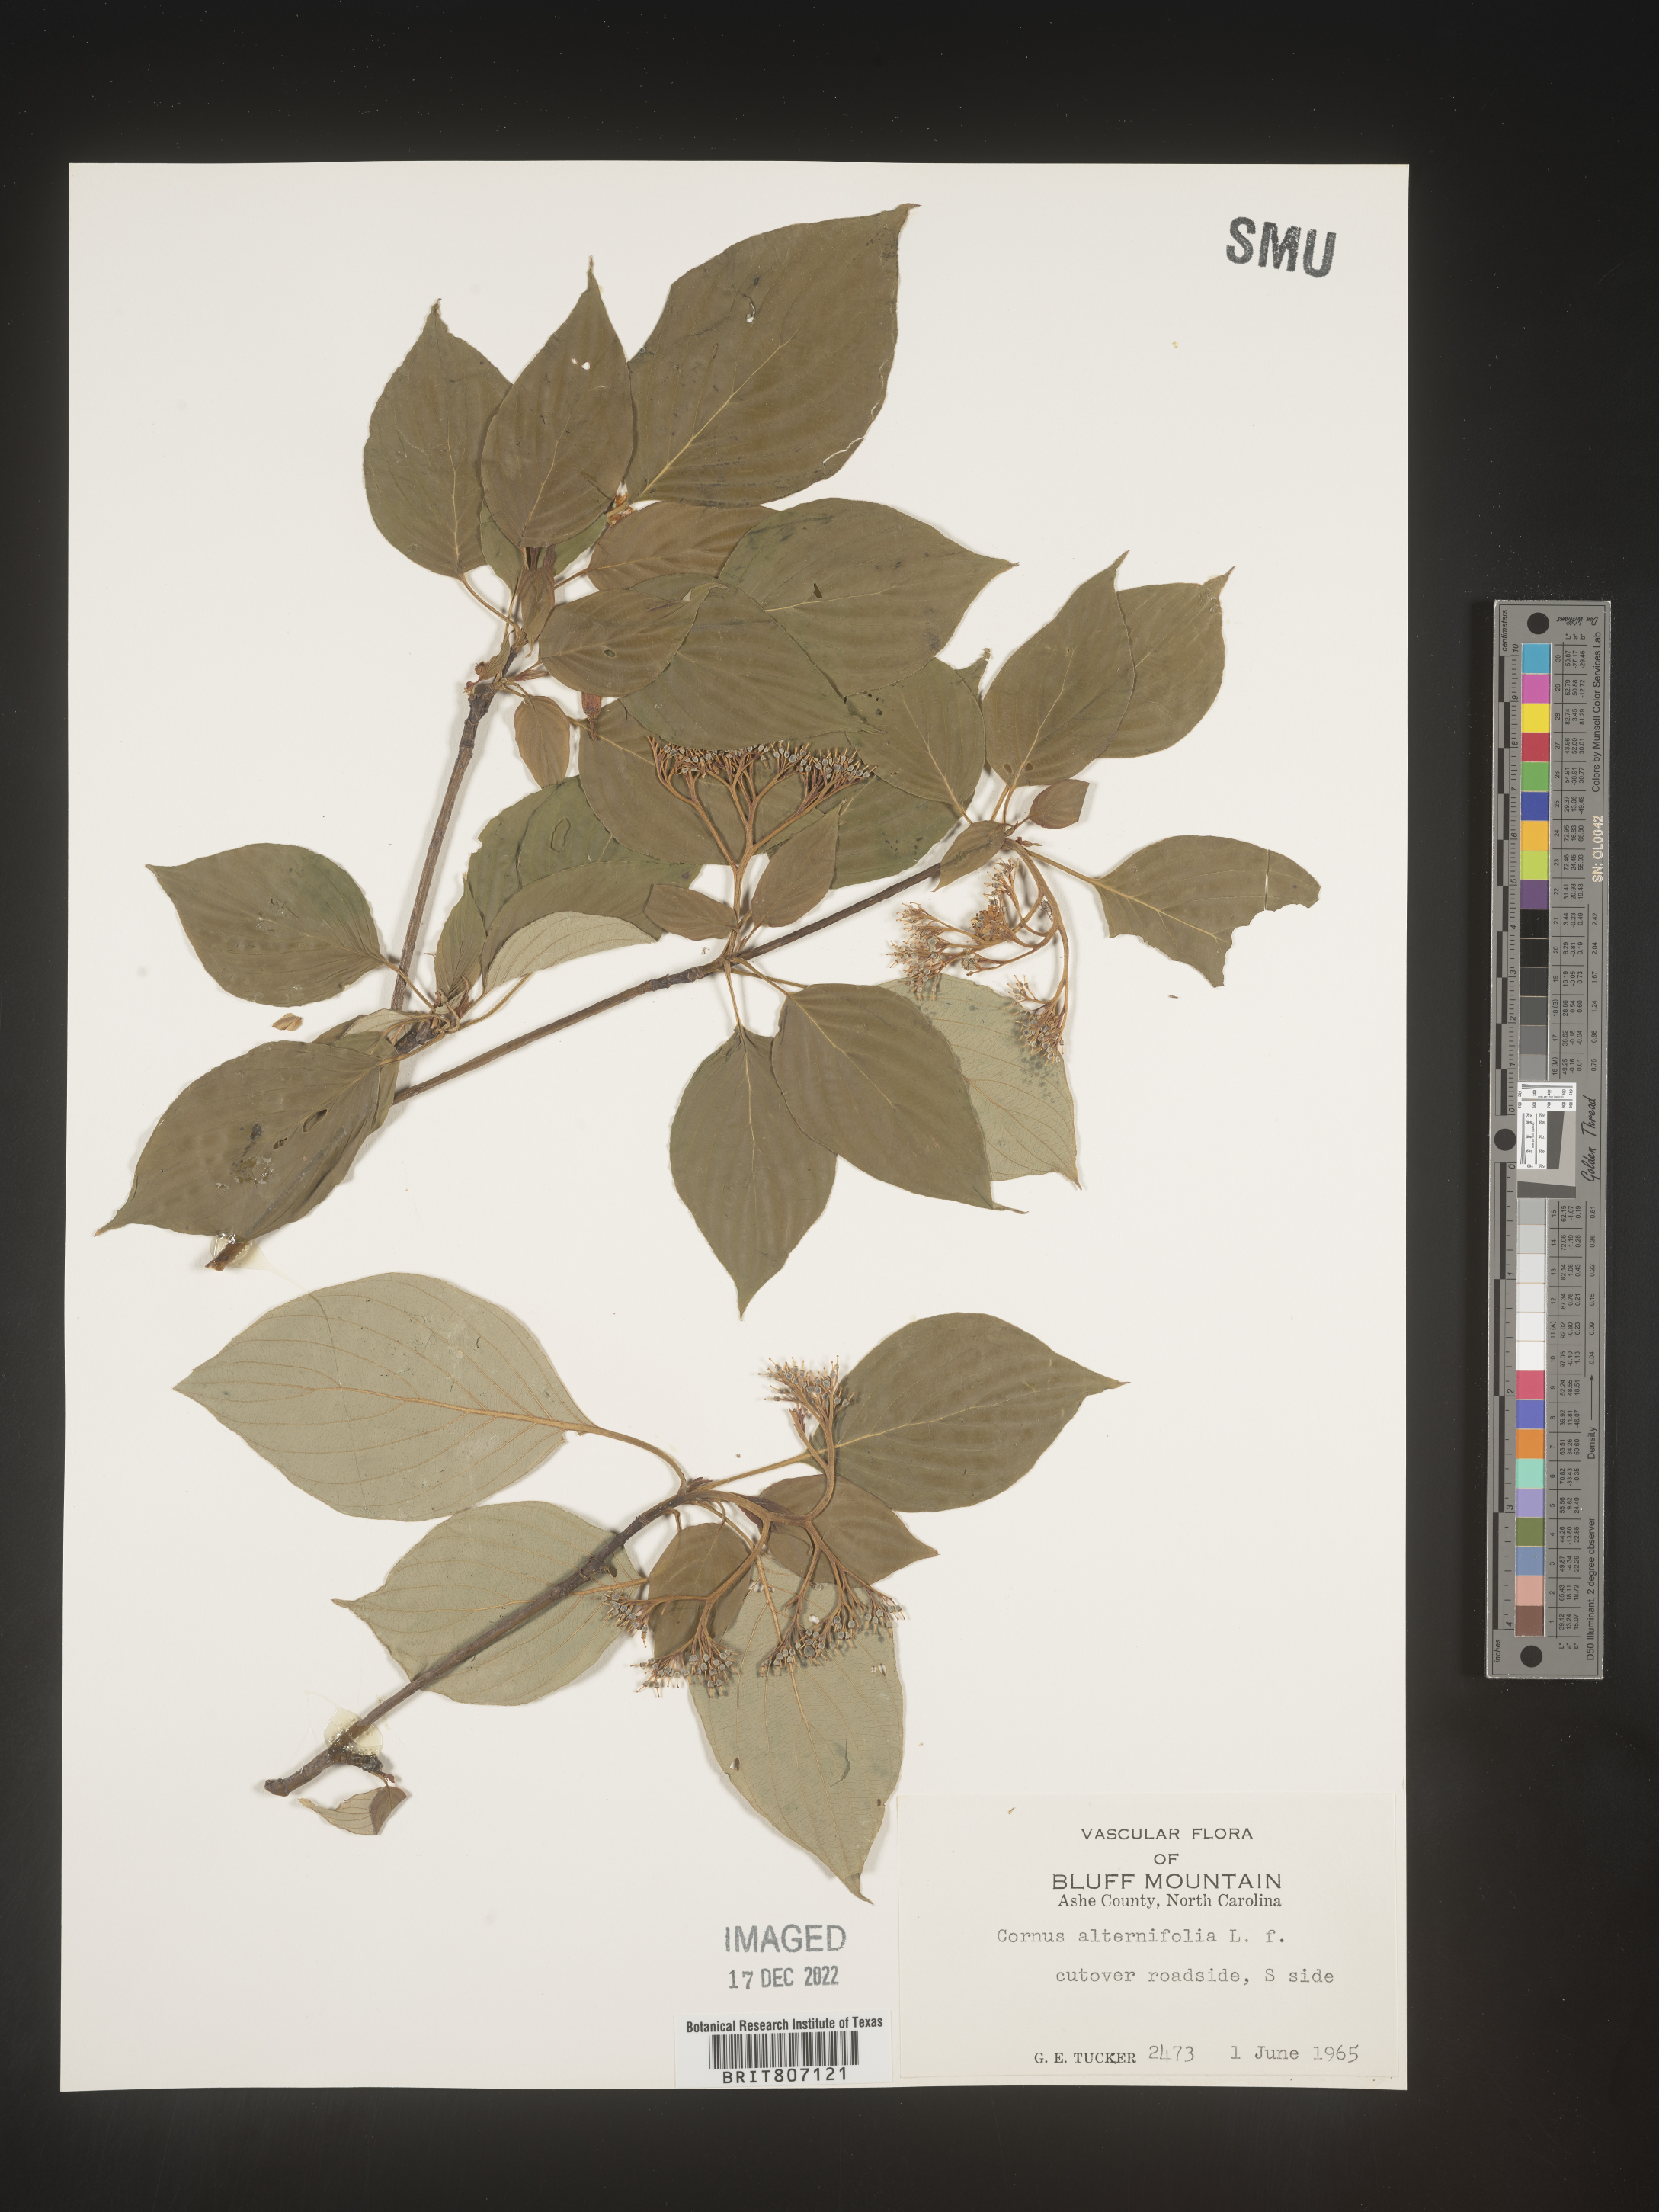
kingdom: Plantae
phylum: Tracheophyta
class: Magnoliopsida
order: Cornales
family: Cornaceae
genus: Cornus
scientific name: Cornus alternifolia
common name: Pagoda dogwood
